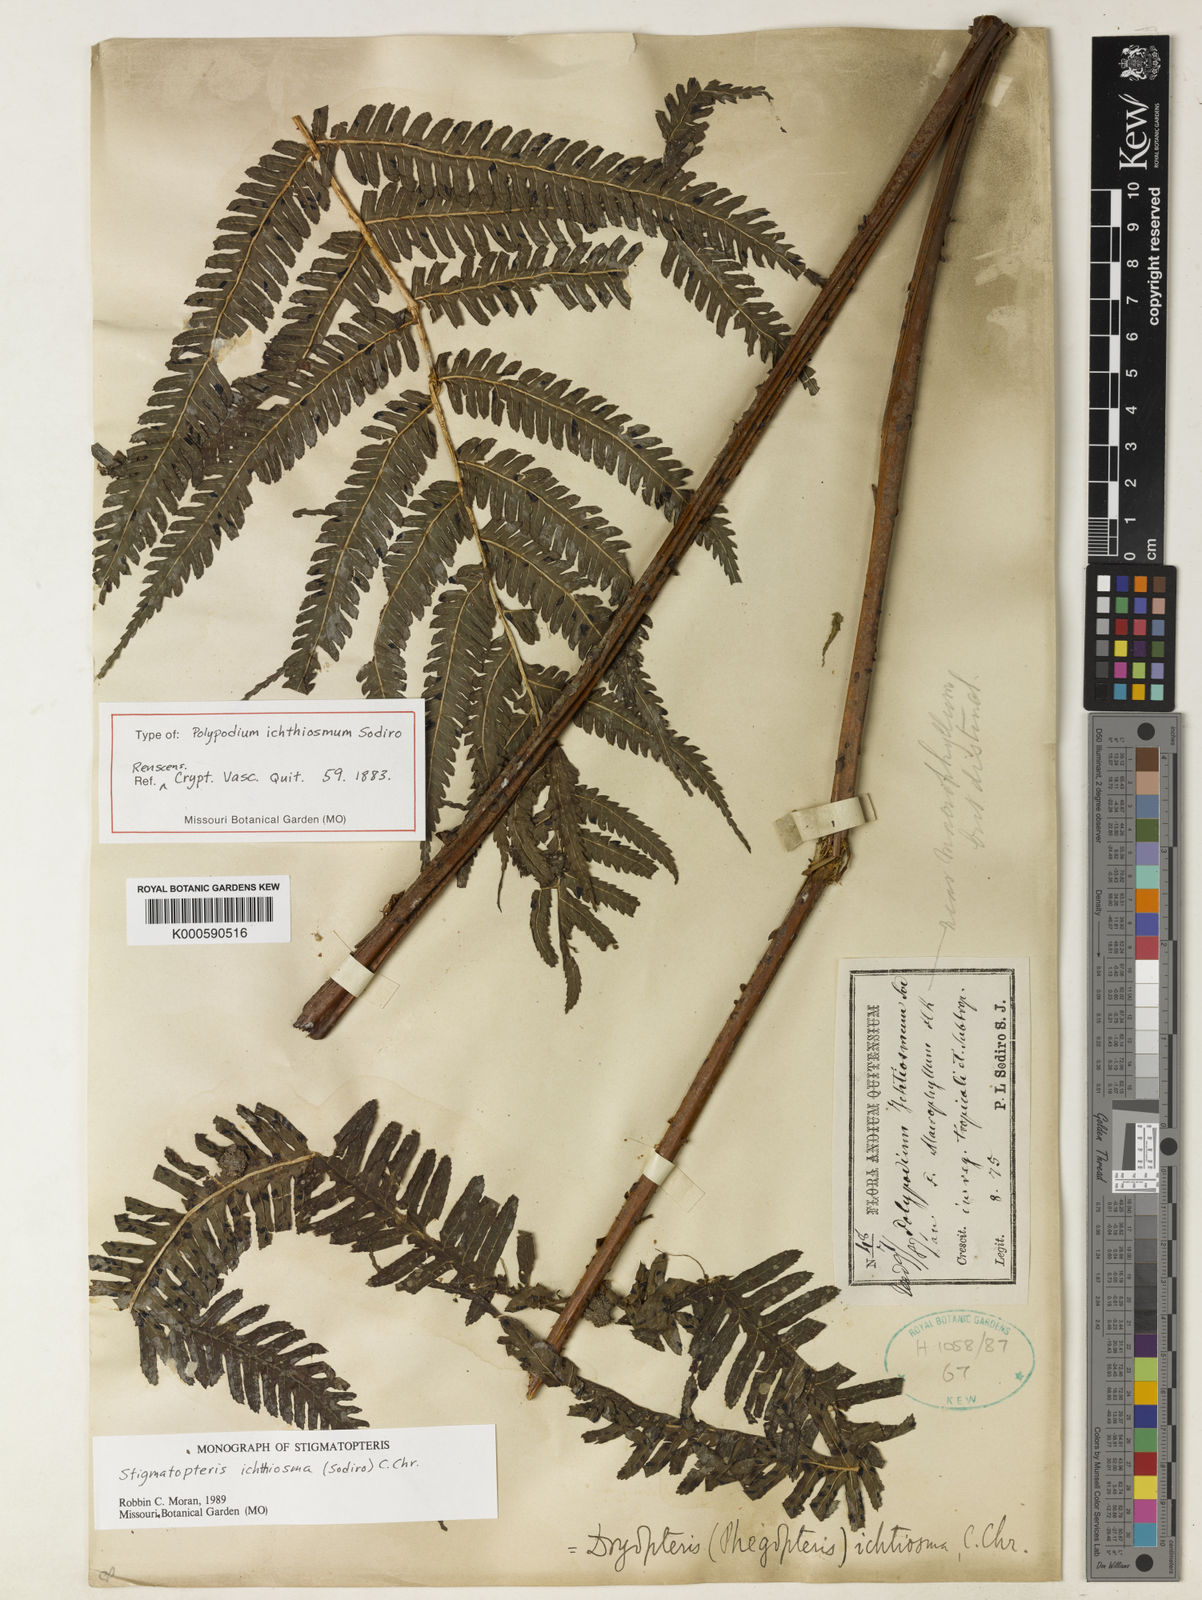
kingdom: Plantae
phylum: Tracheophyta
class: Polypodiopsida
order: Polypodiales
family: Dryopteridaceae
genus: Stigmatopteris
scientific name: Stigmatopteris
